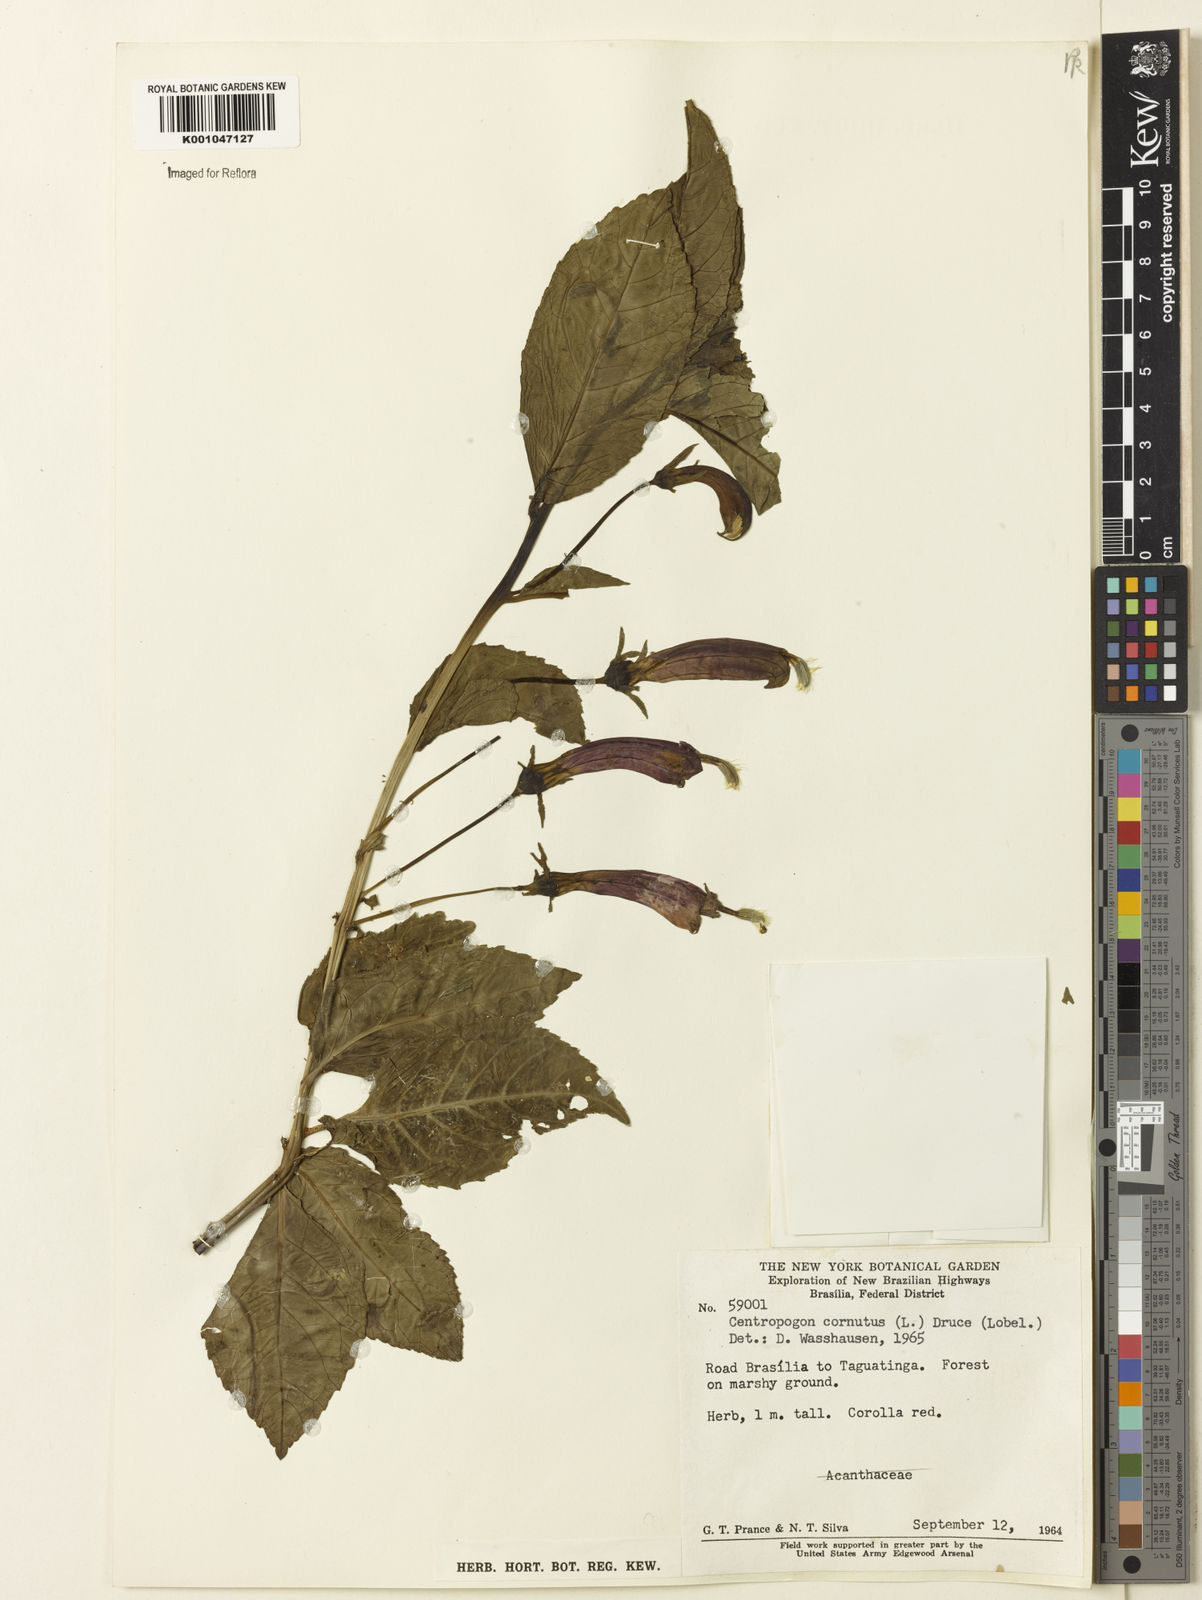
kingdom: Plantae
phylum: Tracheophyta
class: Magnoliopsida
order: Asterales
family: Campanulaceae
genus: Centropogon
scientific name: Centropogon cornutus
